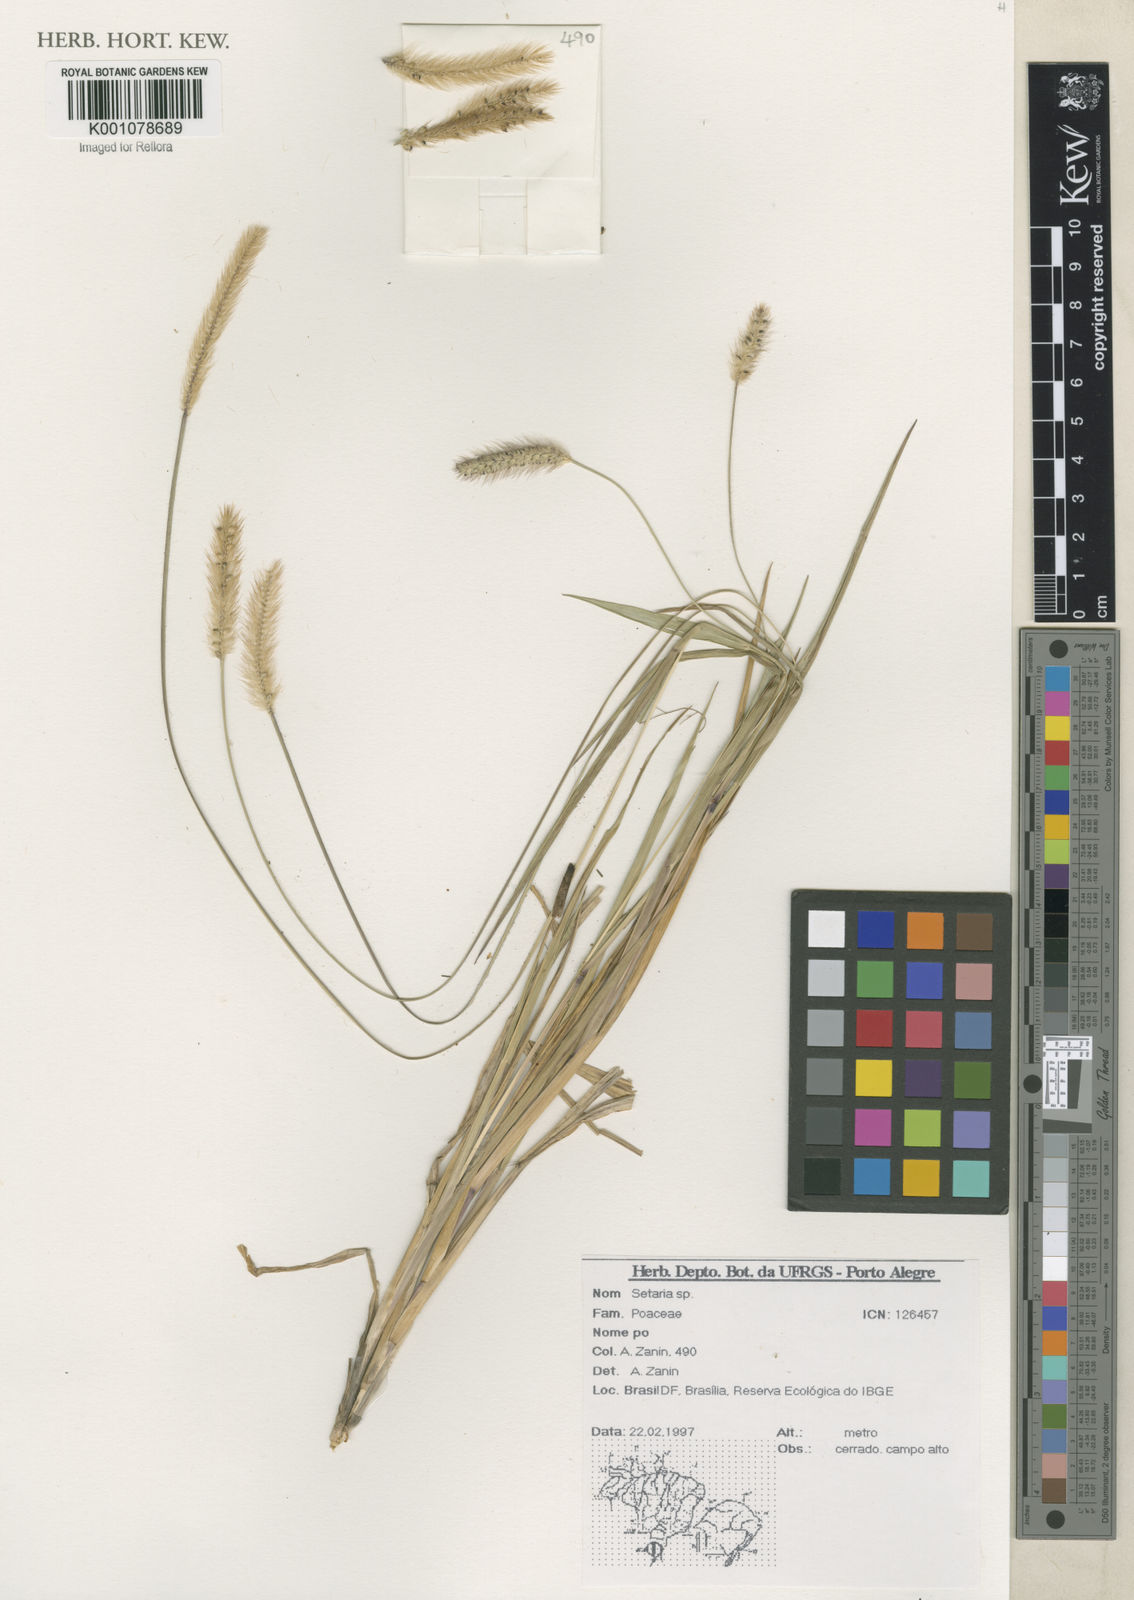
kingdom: Plantae
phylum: Tracheophyta
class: Liliopsida
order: Poales
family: Poaceae
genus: Setaria
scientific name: Setaria
